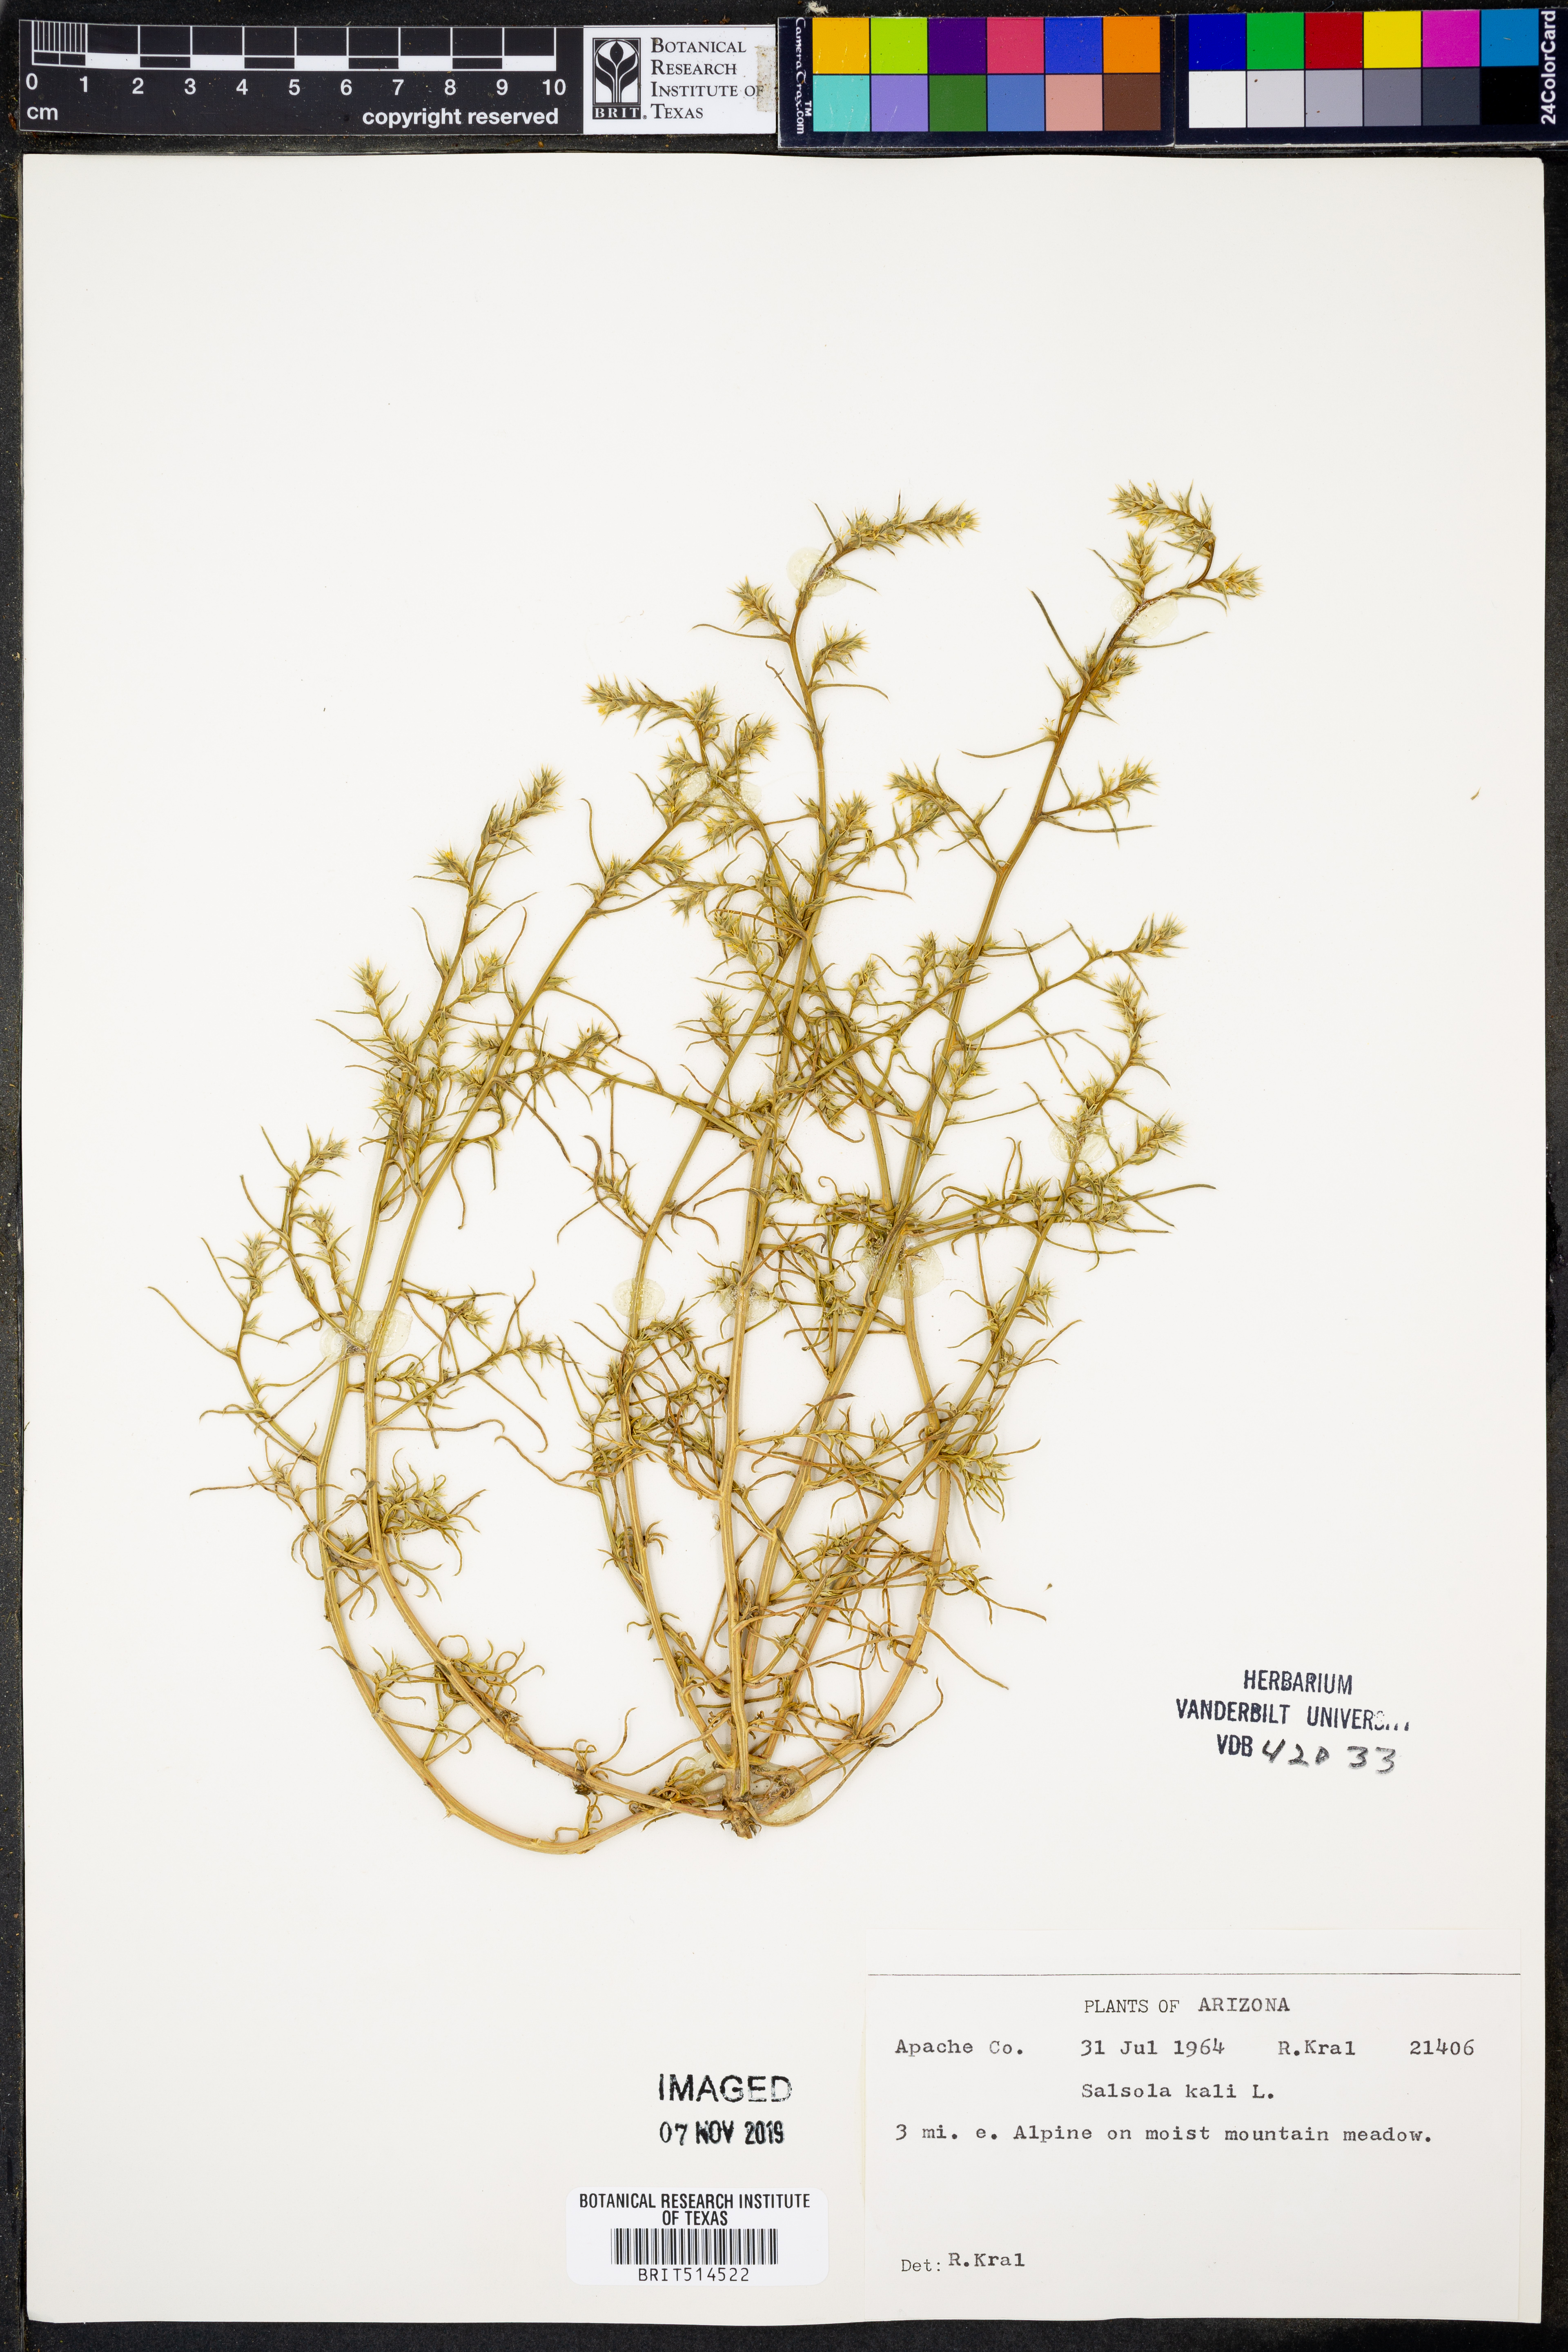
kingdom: Plantae
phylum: Tracheophyta
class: Magnoliopsida
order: Caryophyllales
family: Amaranthaceae
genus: Salsola
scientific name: Salsola tragus
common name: Prickly russian thistle
